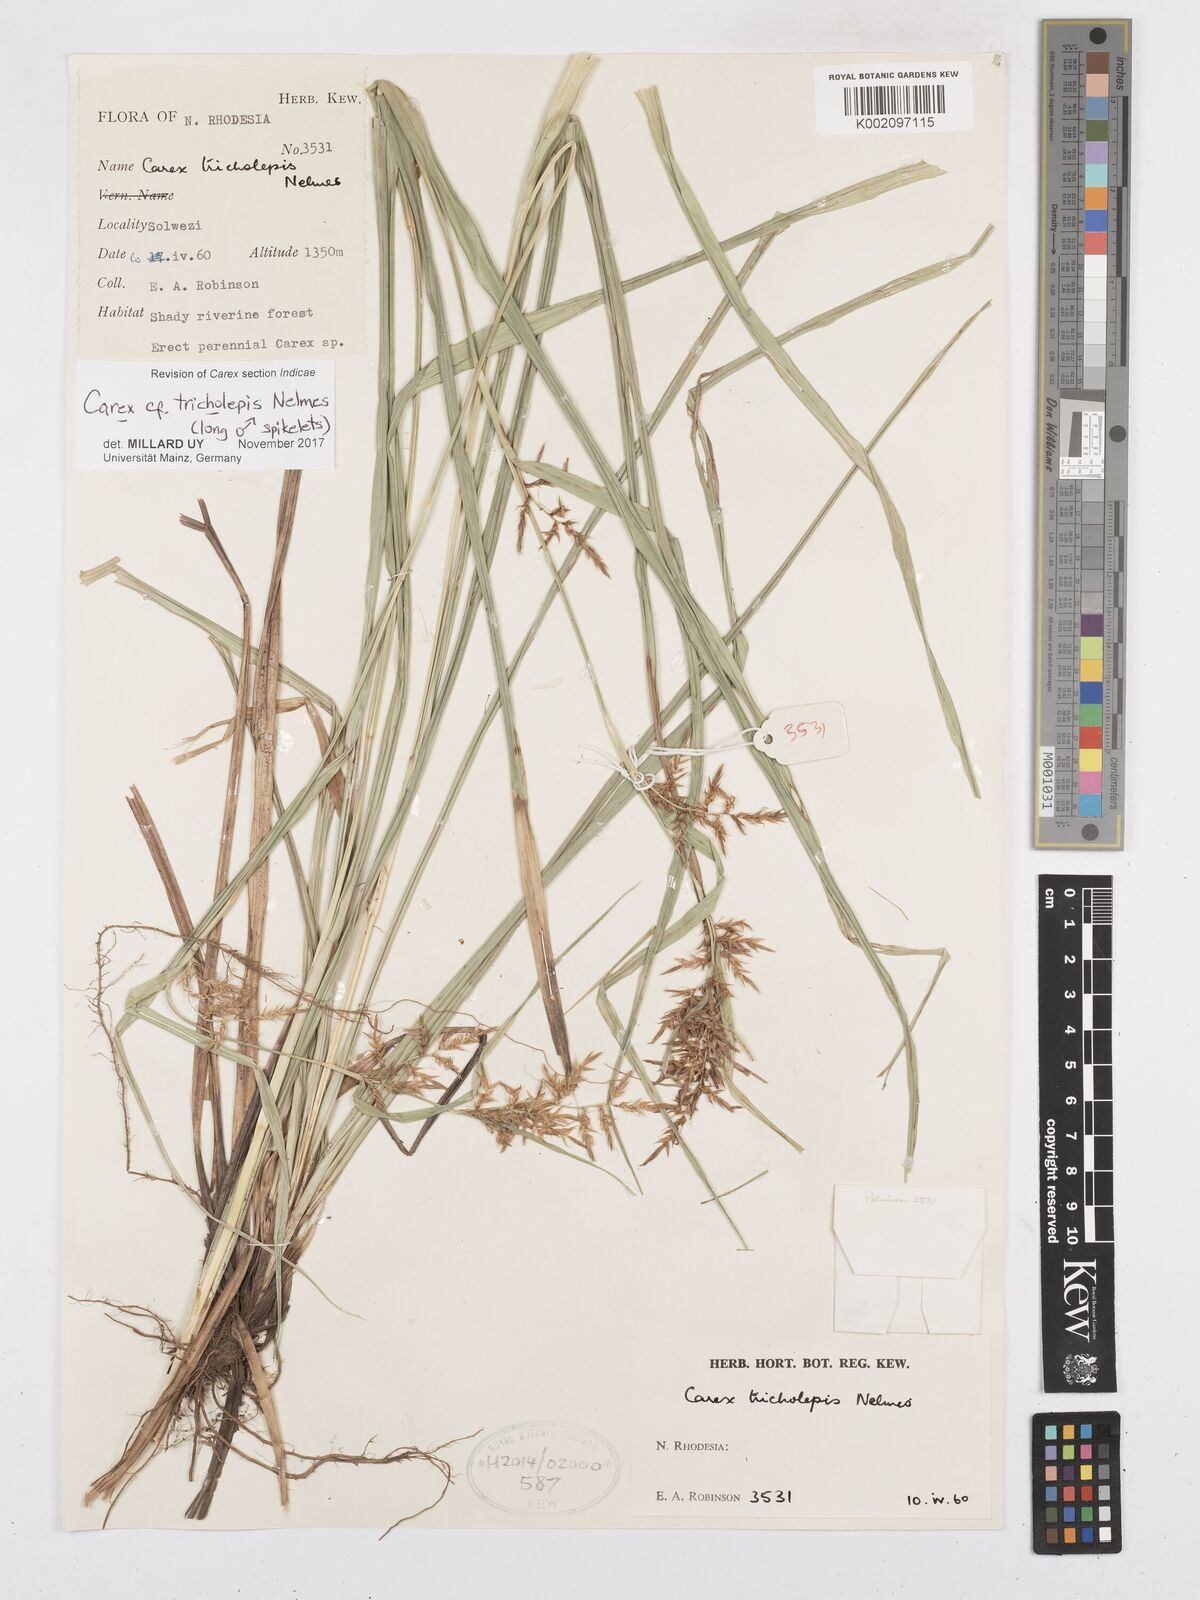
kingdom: Plantae
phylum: Tracheophyta
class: Liliopsida
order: Poales
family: Cyperaceae
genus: Carex
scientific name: Carex tricholepis
